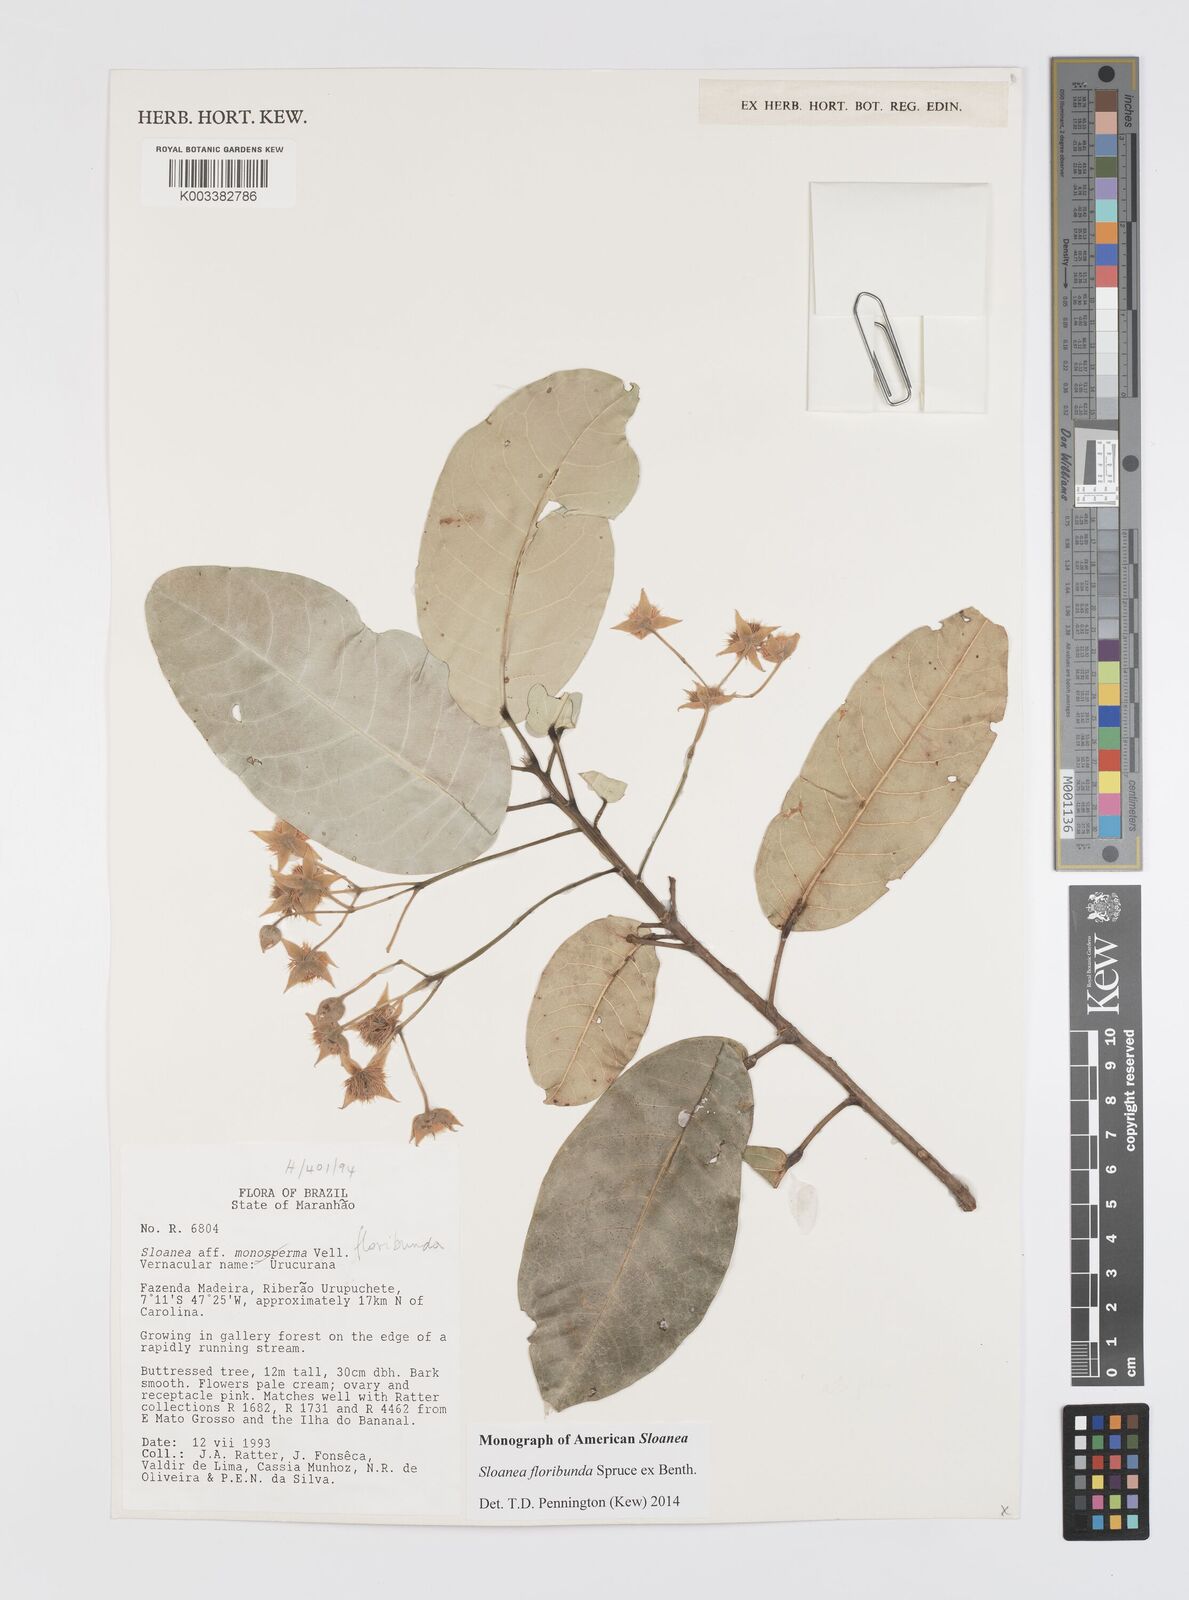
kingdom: Plantae
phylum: Tracheophyta
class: Magnoliopsida
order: Oxalidales
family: Elaeocarpaceae
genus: Sloanea
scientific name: Sloanea floribunda
